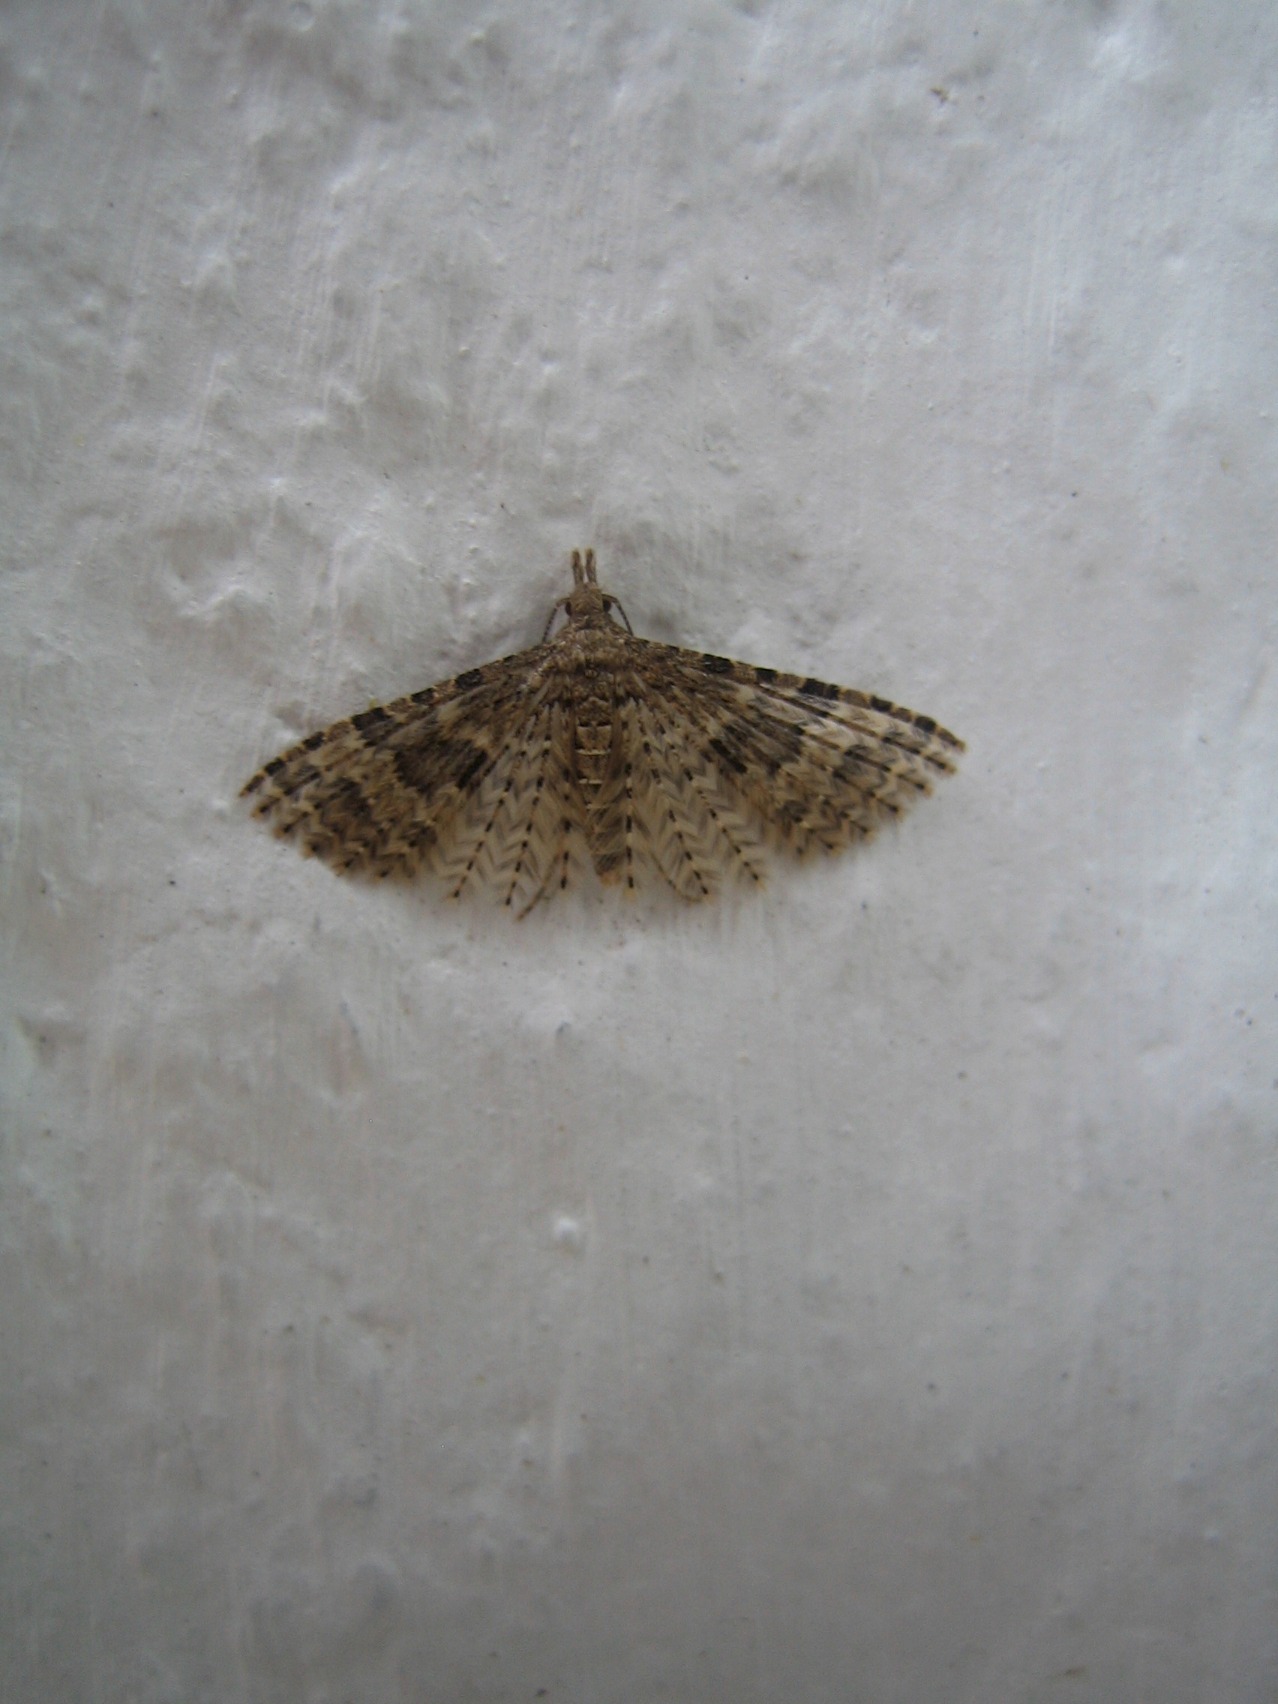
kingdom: Animalia
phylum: Arthropoda
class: Insecta
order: Lepidoptera
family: Alucitidae
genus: Alucita
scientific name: Alucita hexadactyla
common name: Kaprifoliefjermøl
